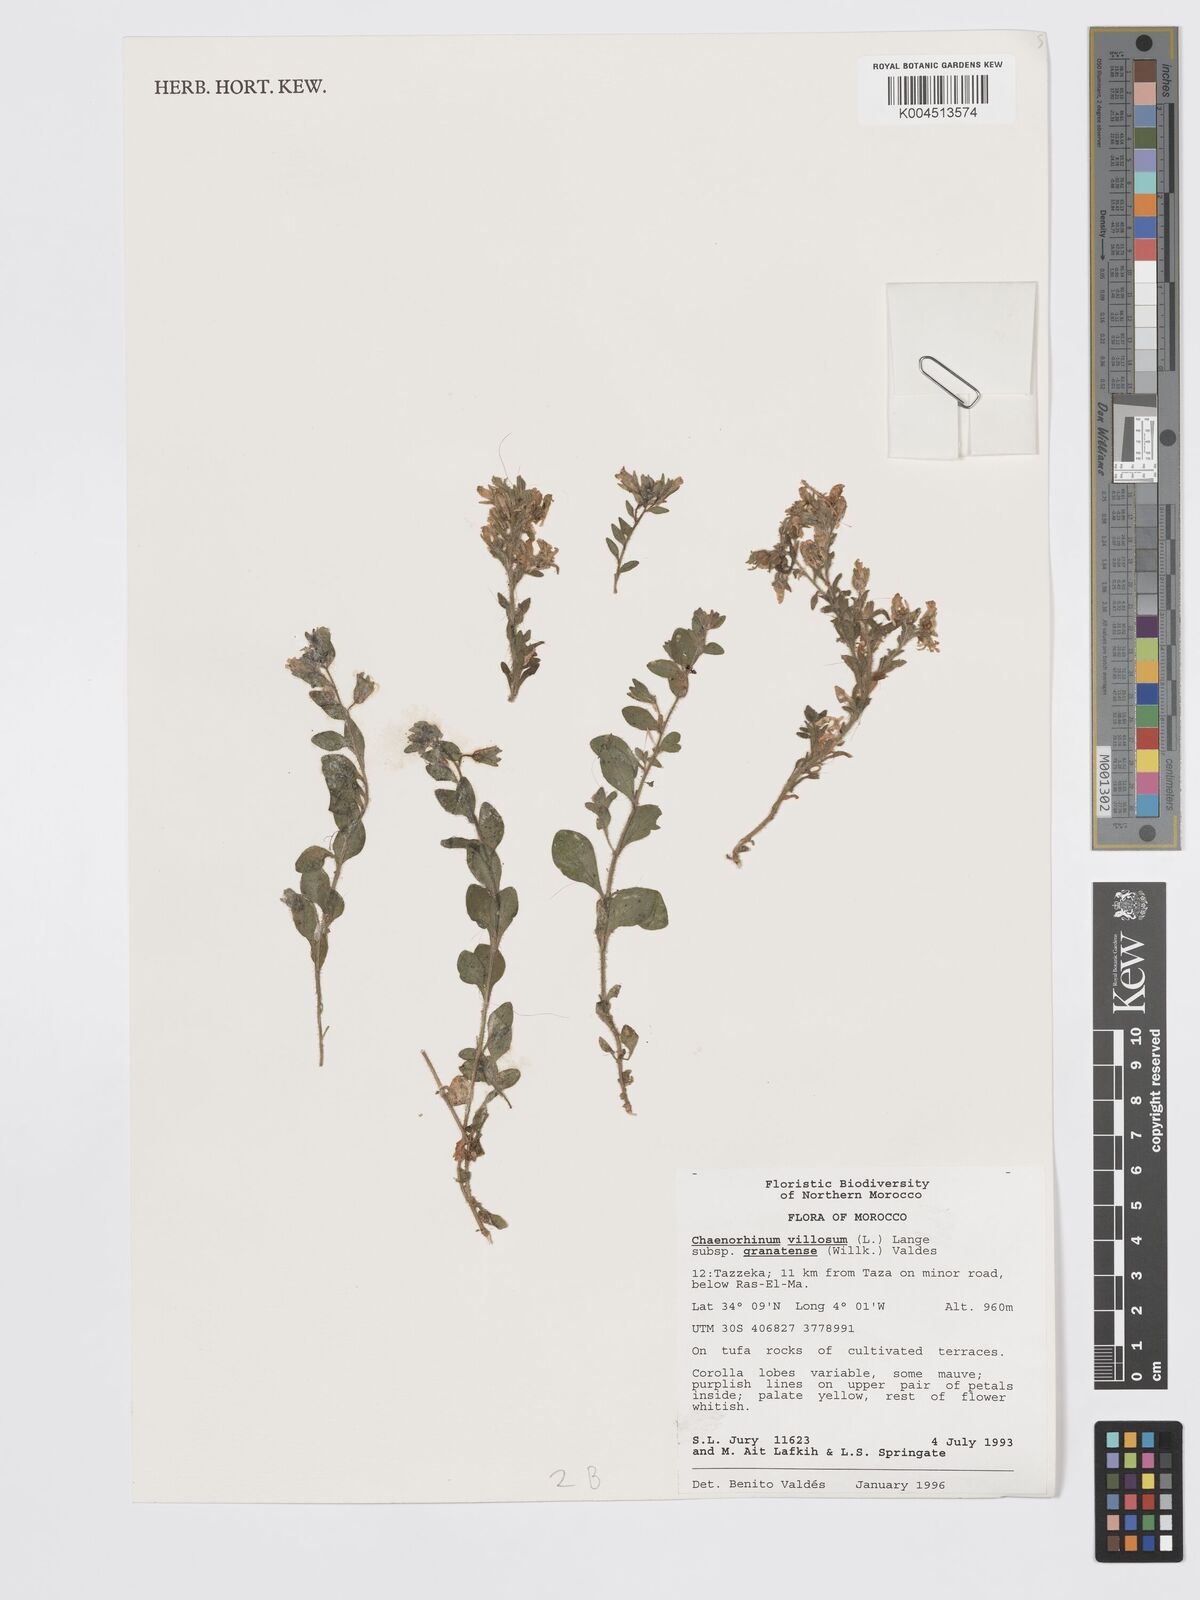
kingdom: Plantae
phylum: Tracheophyta
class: Magnoliopsida
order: Lamiales
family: Plantaginaceae
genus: Chaenorhinum
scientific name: Chaenorhinum villosum
